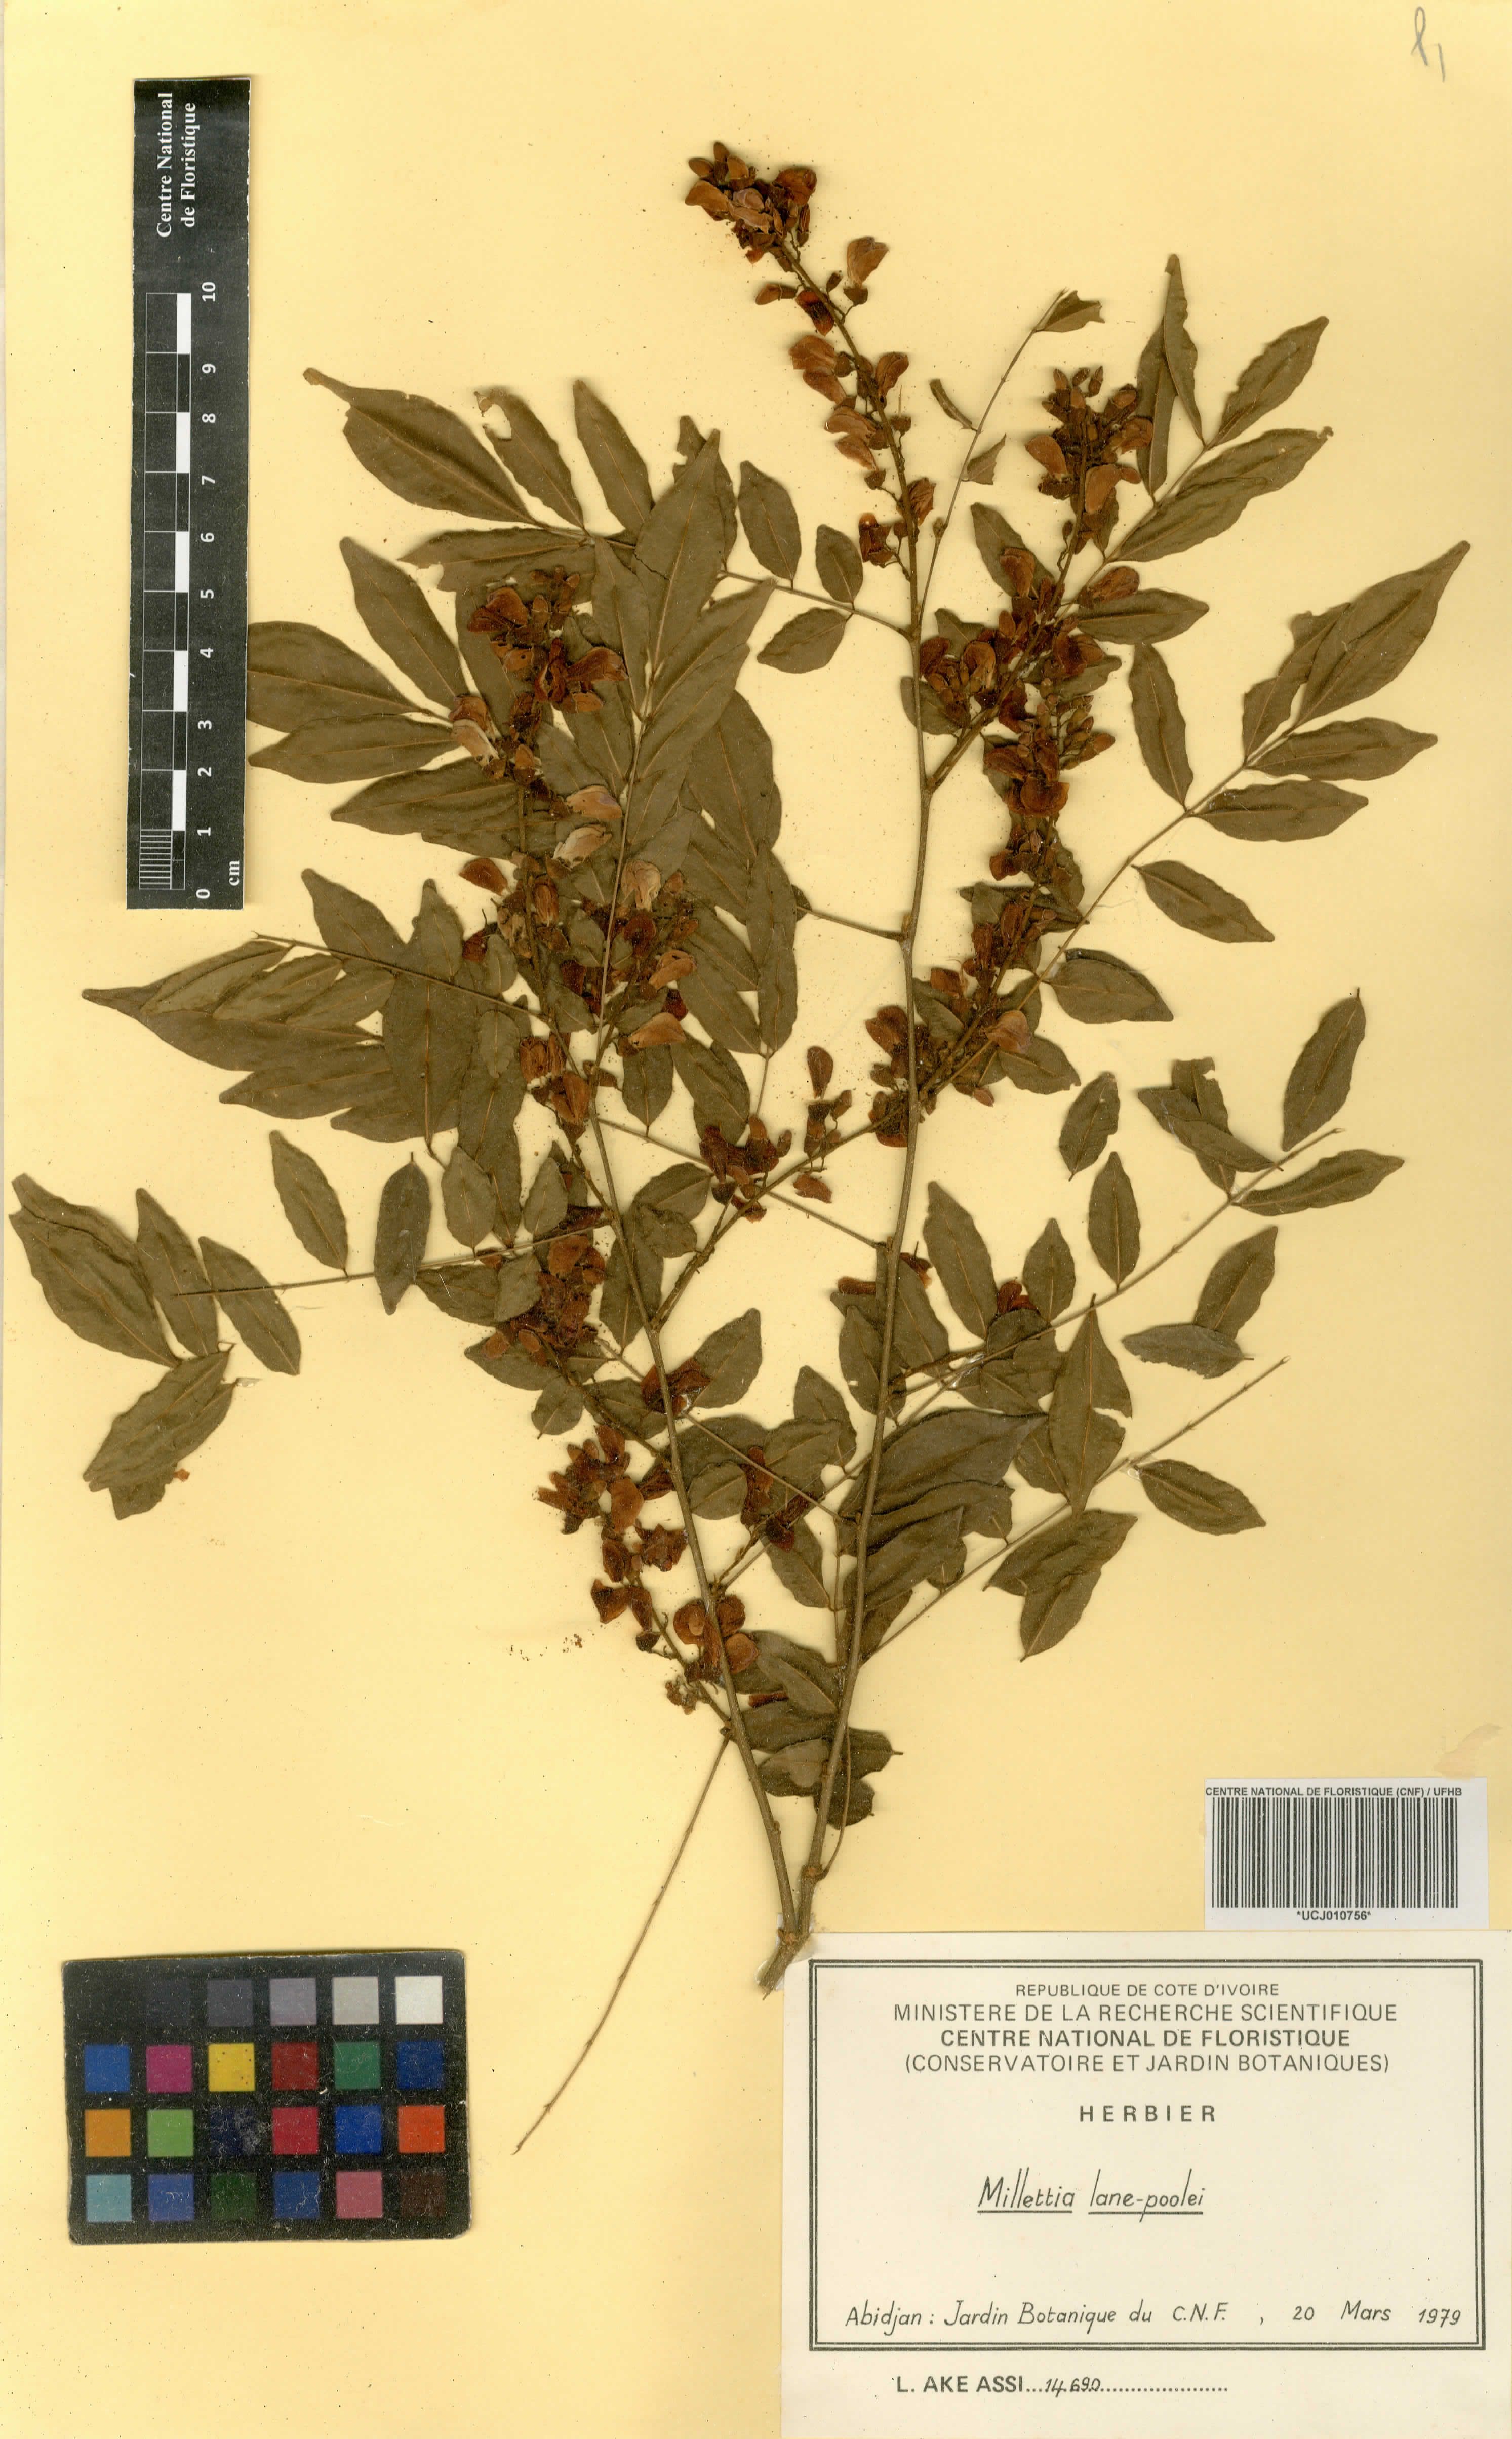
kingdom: Plantae
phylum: Tracheophyta
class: Magnoliopsida
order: Fabales
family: Fabaceae
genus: Millettia
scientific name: Millettia lane-poolei
